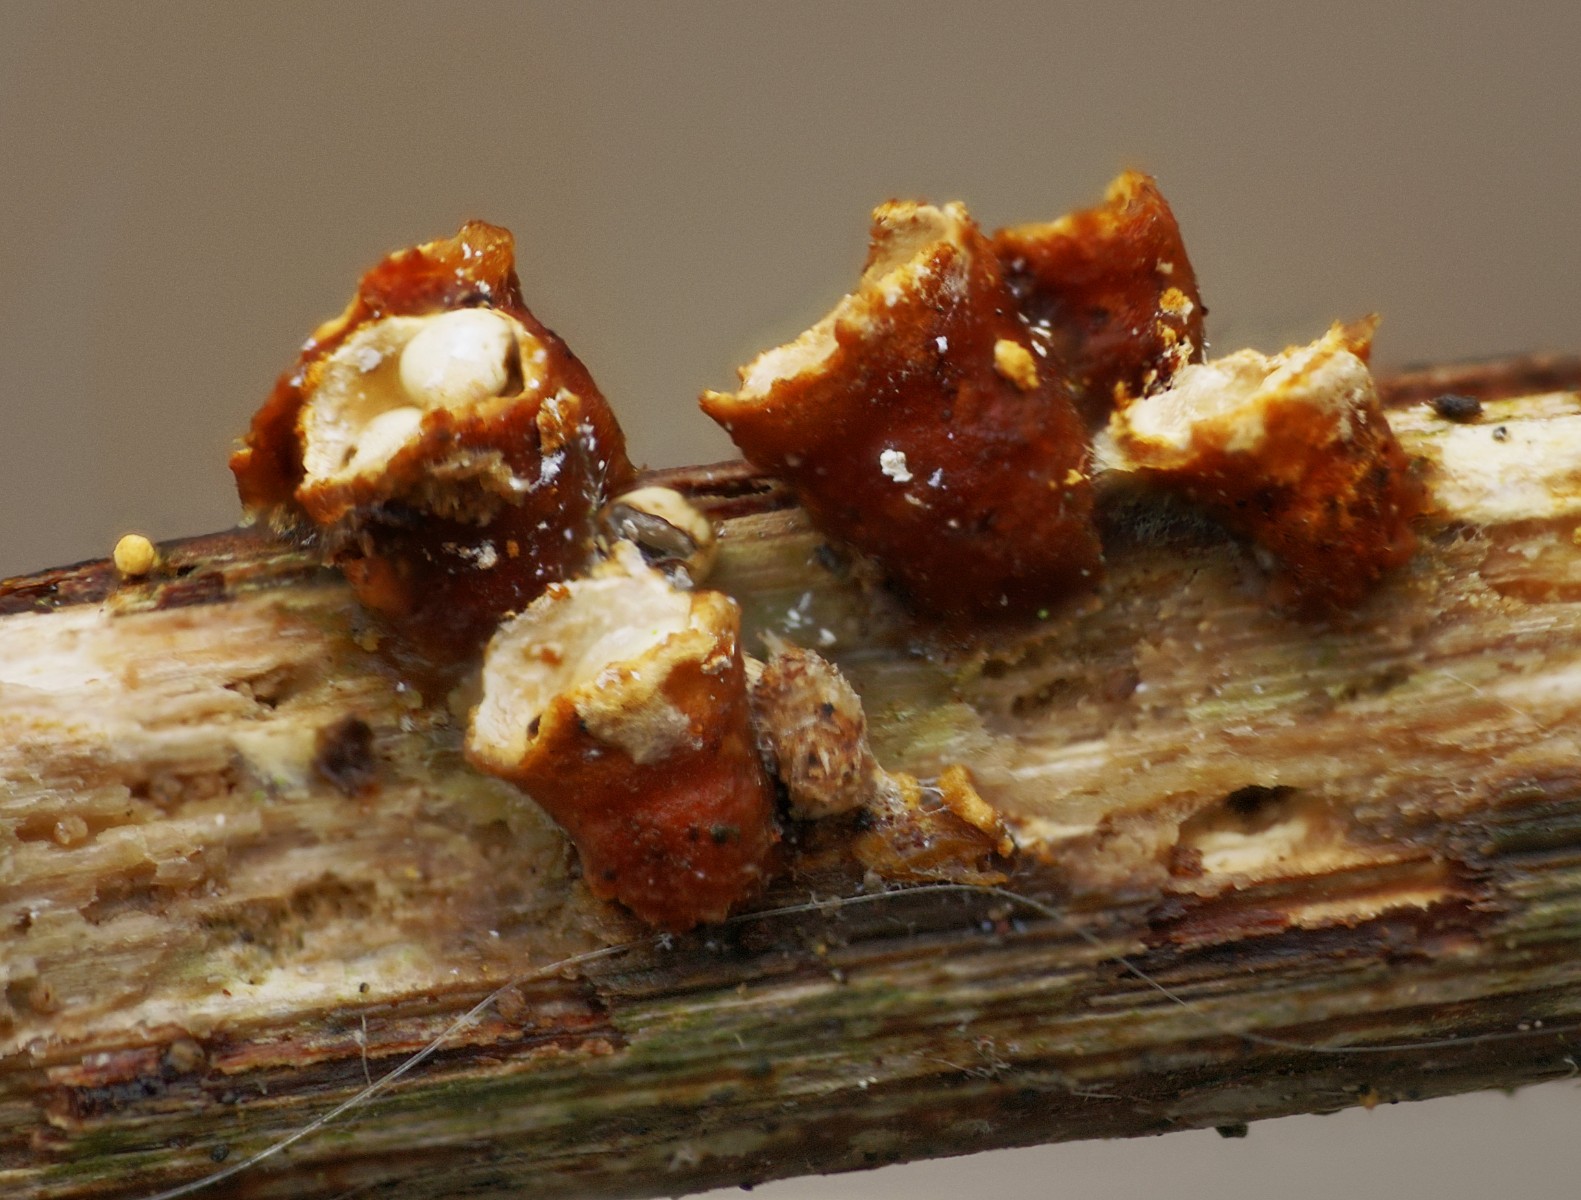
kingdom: Fungi
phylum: Basidiomycota
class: Agaricomycetes
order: Agaricales
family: Nidulariaceae
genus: Crucibulum
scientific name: Crucibulum crucibuliforme
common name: krukkesvamp
